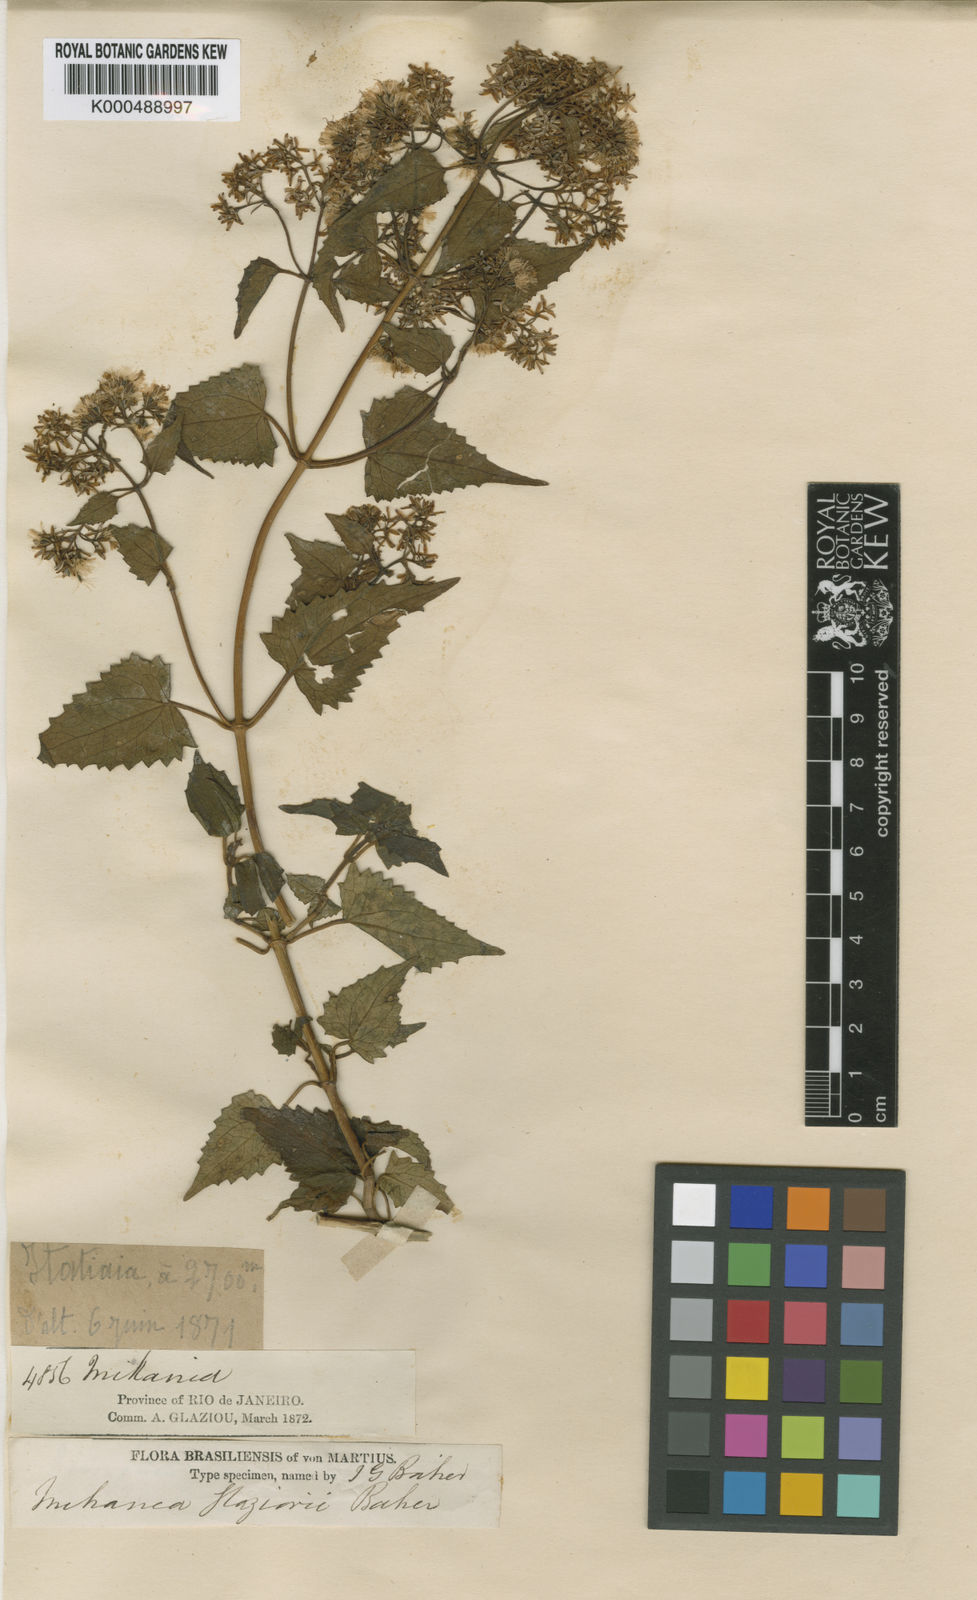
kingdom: Plantae
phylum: Tracheophyta
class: Magnoliopsida
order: Asterales
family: Asteraceae
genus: Mikania
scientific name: Mikania glaziovii
